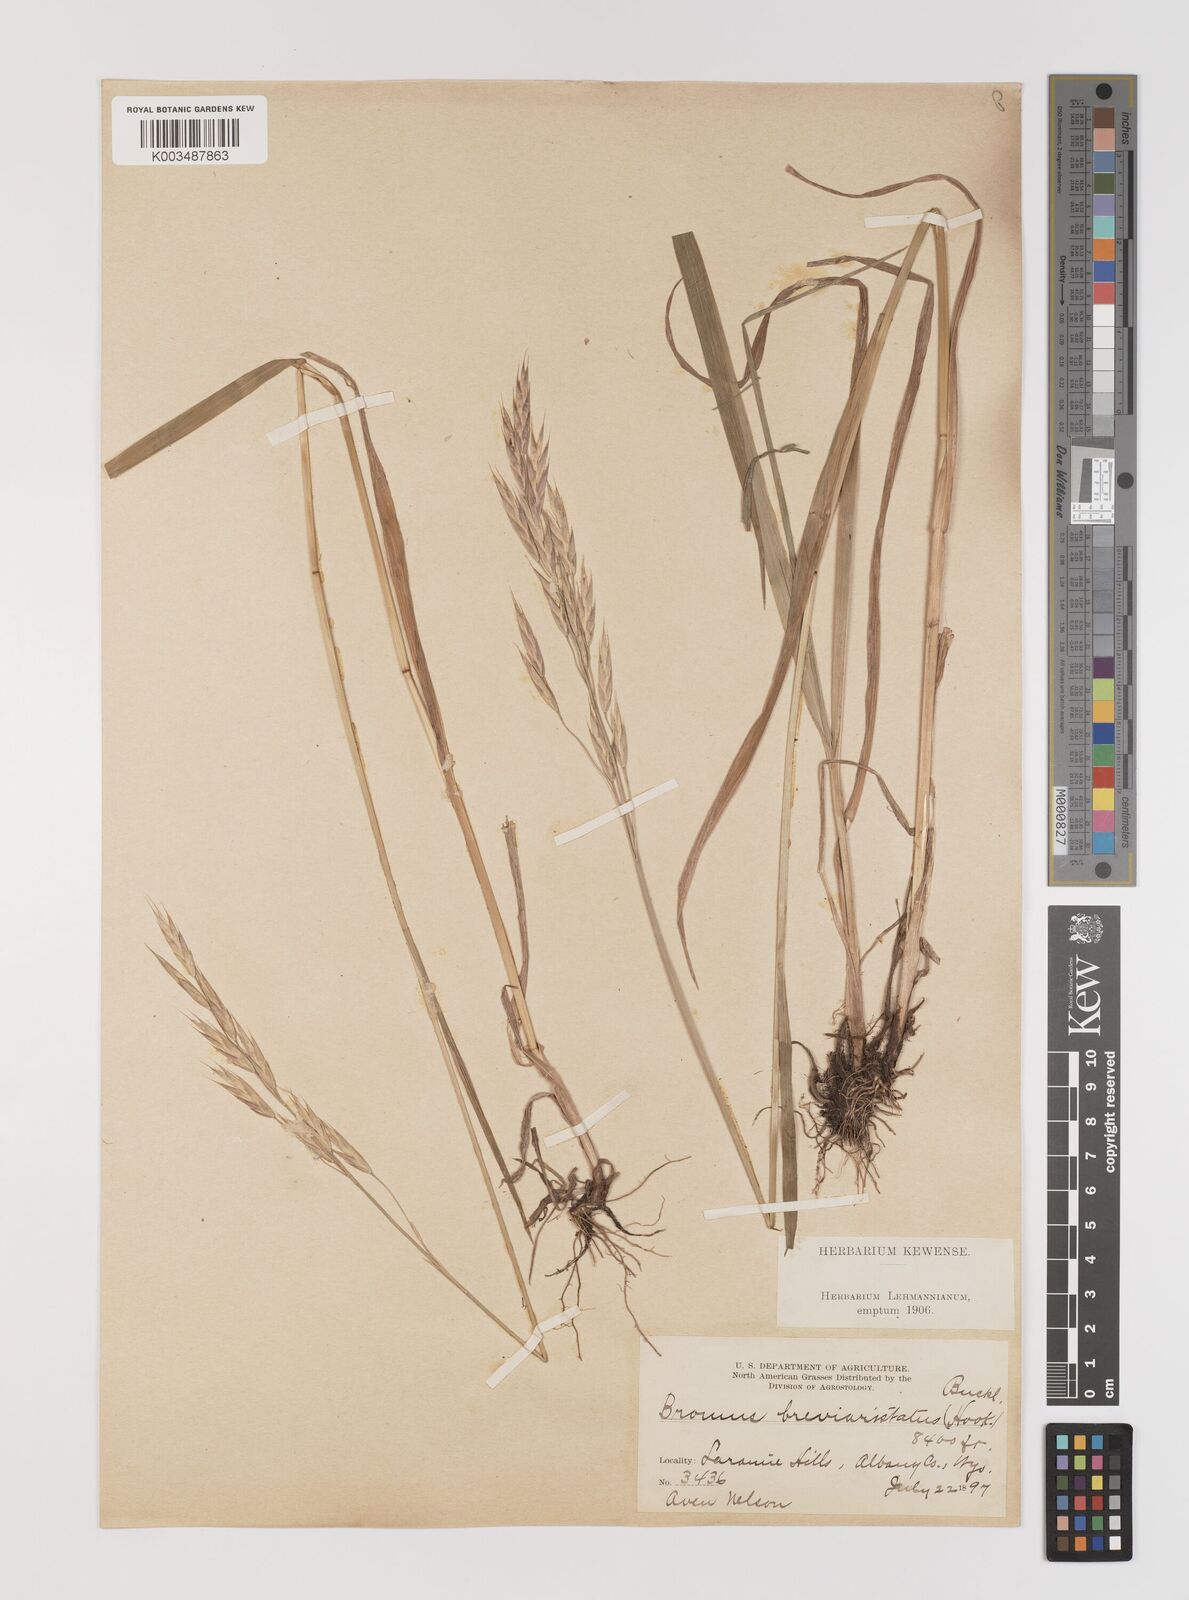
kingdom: Plantae
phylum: Tracheophyta
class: Liliopsida
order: Poales
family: Poaceae
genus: Bromus
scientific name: Bromus catharticus
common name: Rescuegrass
